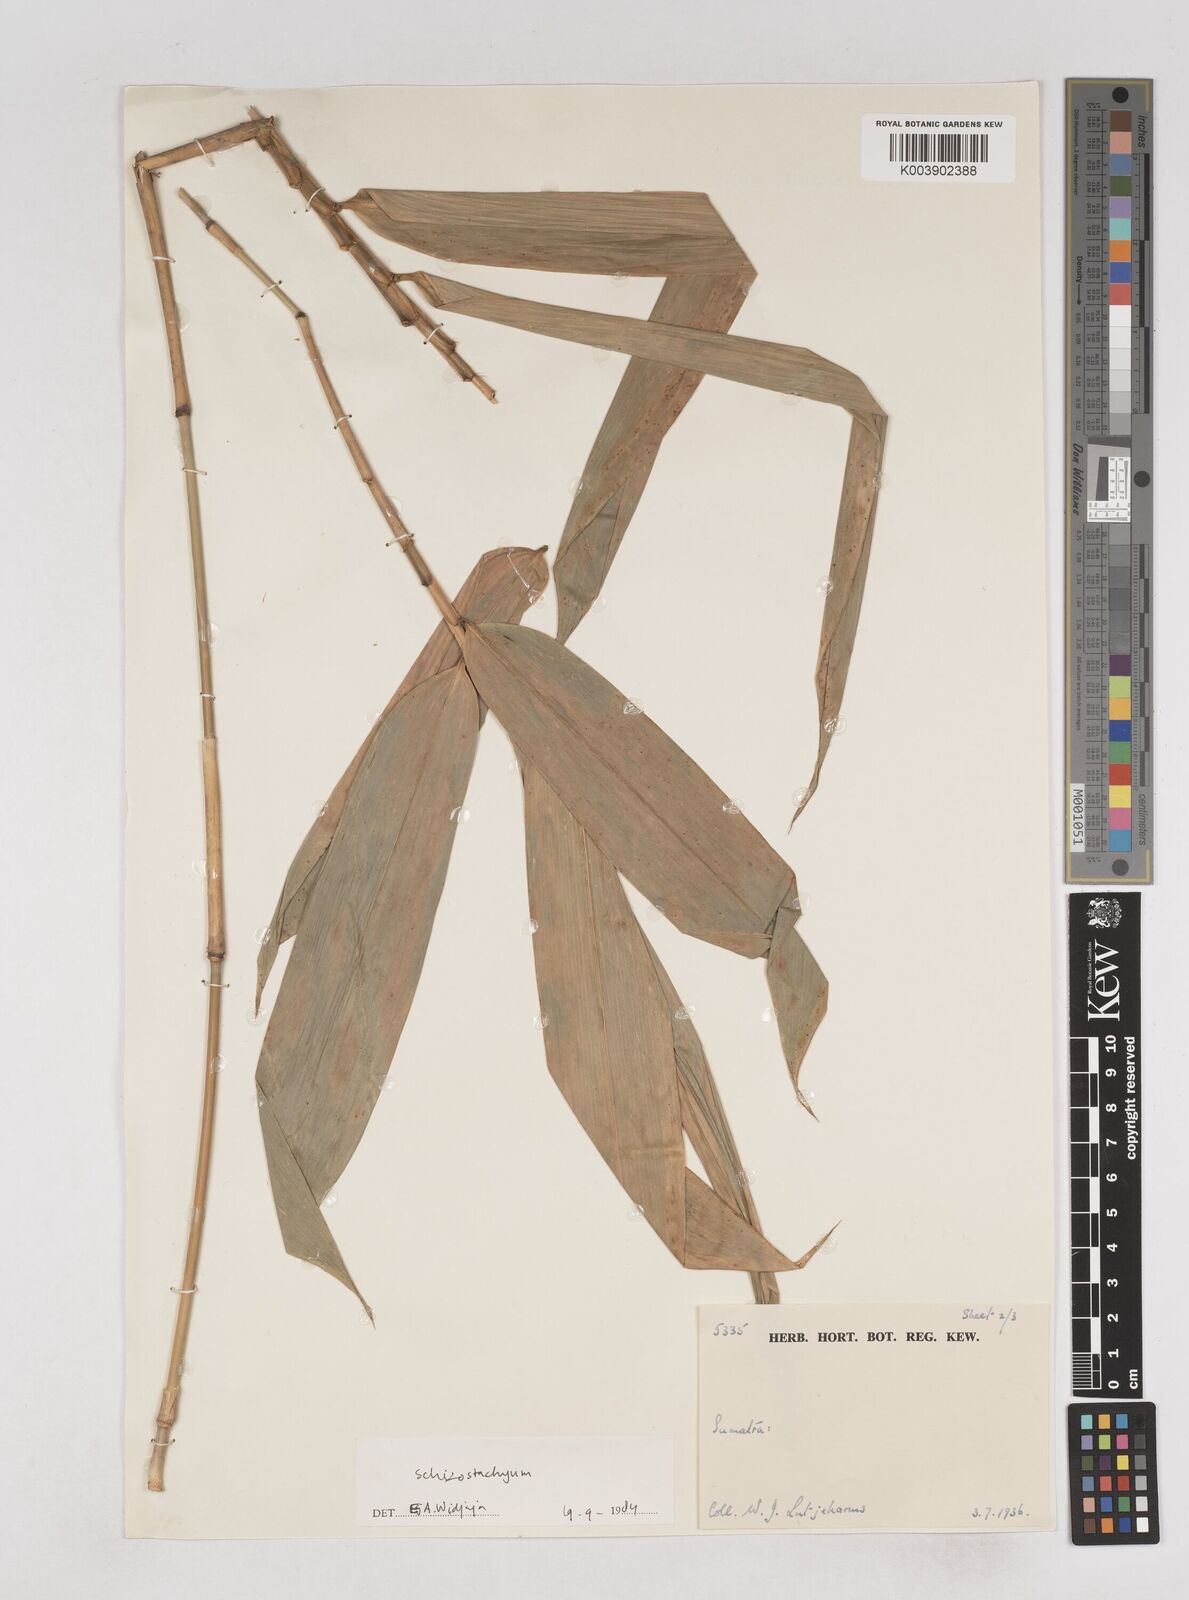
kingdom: Plantae
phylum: Tracheophyta
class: Liliopsida
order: Poales
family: Poaceae
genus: Schizostachyum
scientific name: Schizostachyum zollingeri
